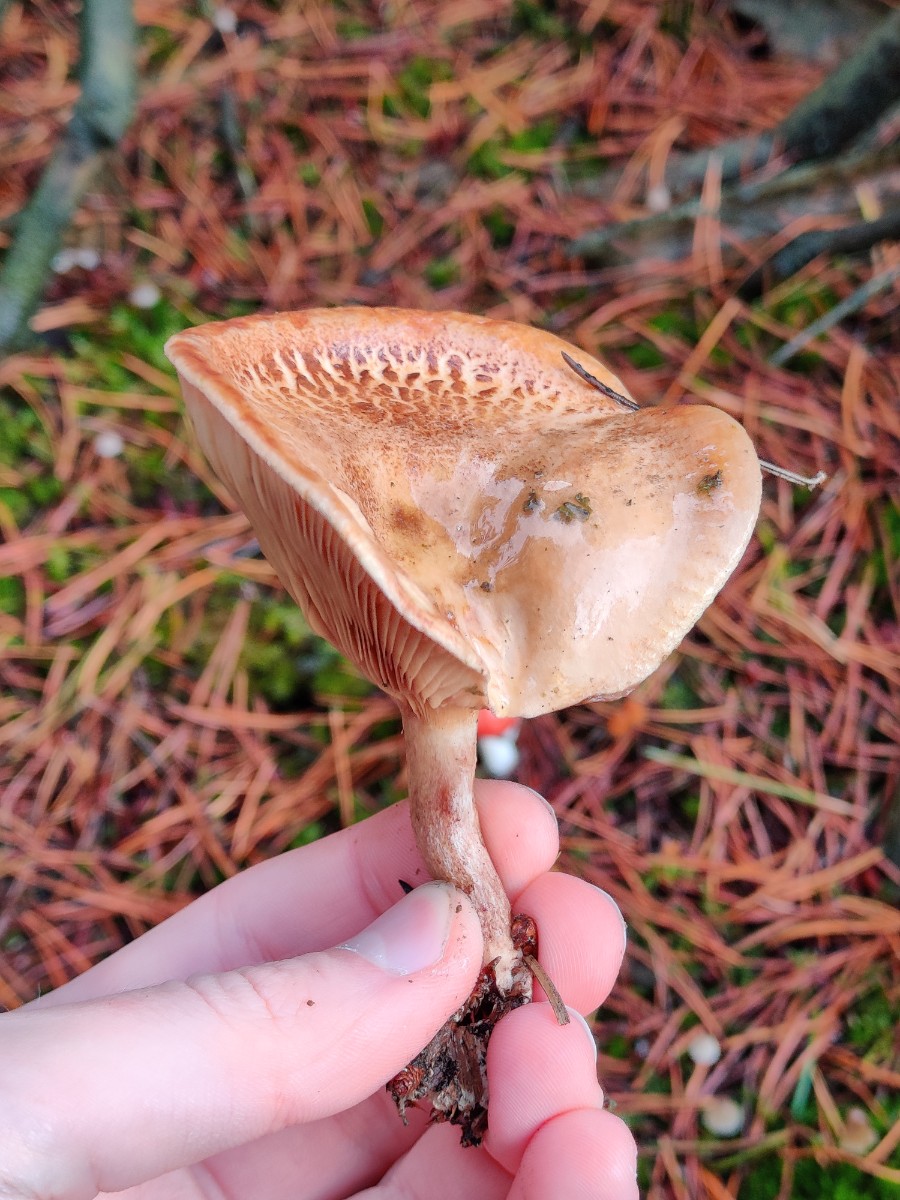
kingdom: Fungi
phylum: Basidiomycota
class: Agaricomycetes
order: Boletales
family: Paxillaceae
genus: Paxillus
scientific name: Paxillus involutus
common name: almindelig netbladhat
